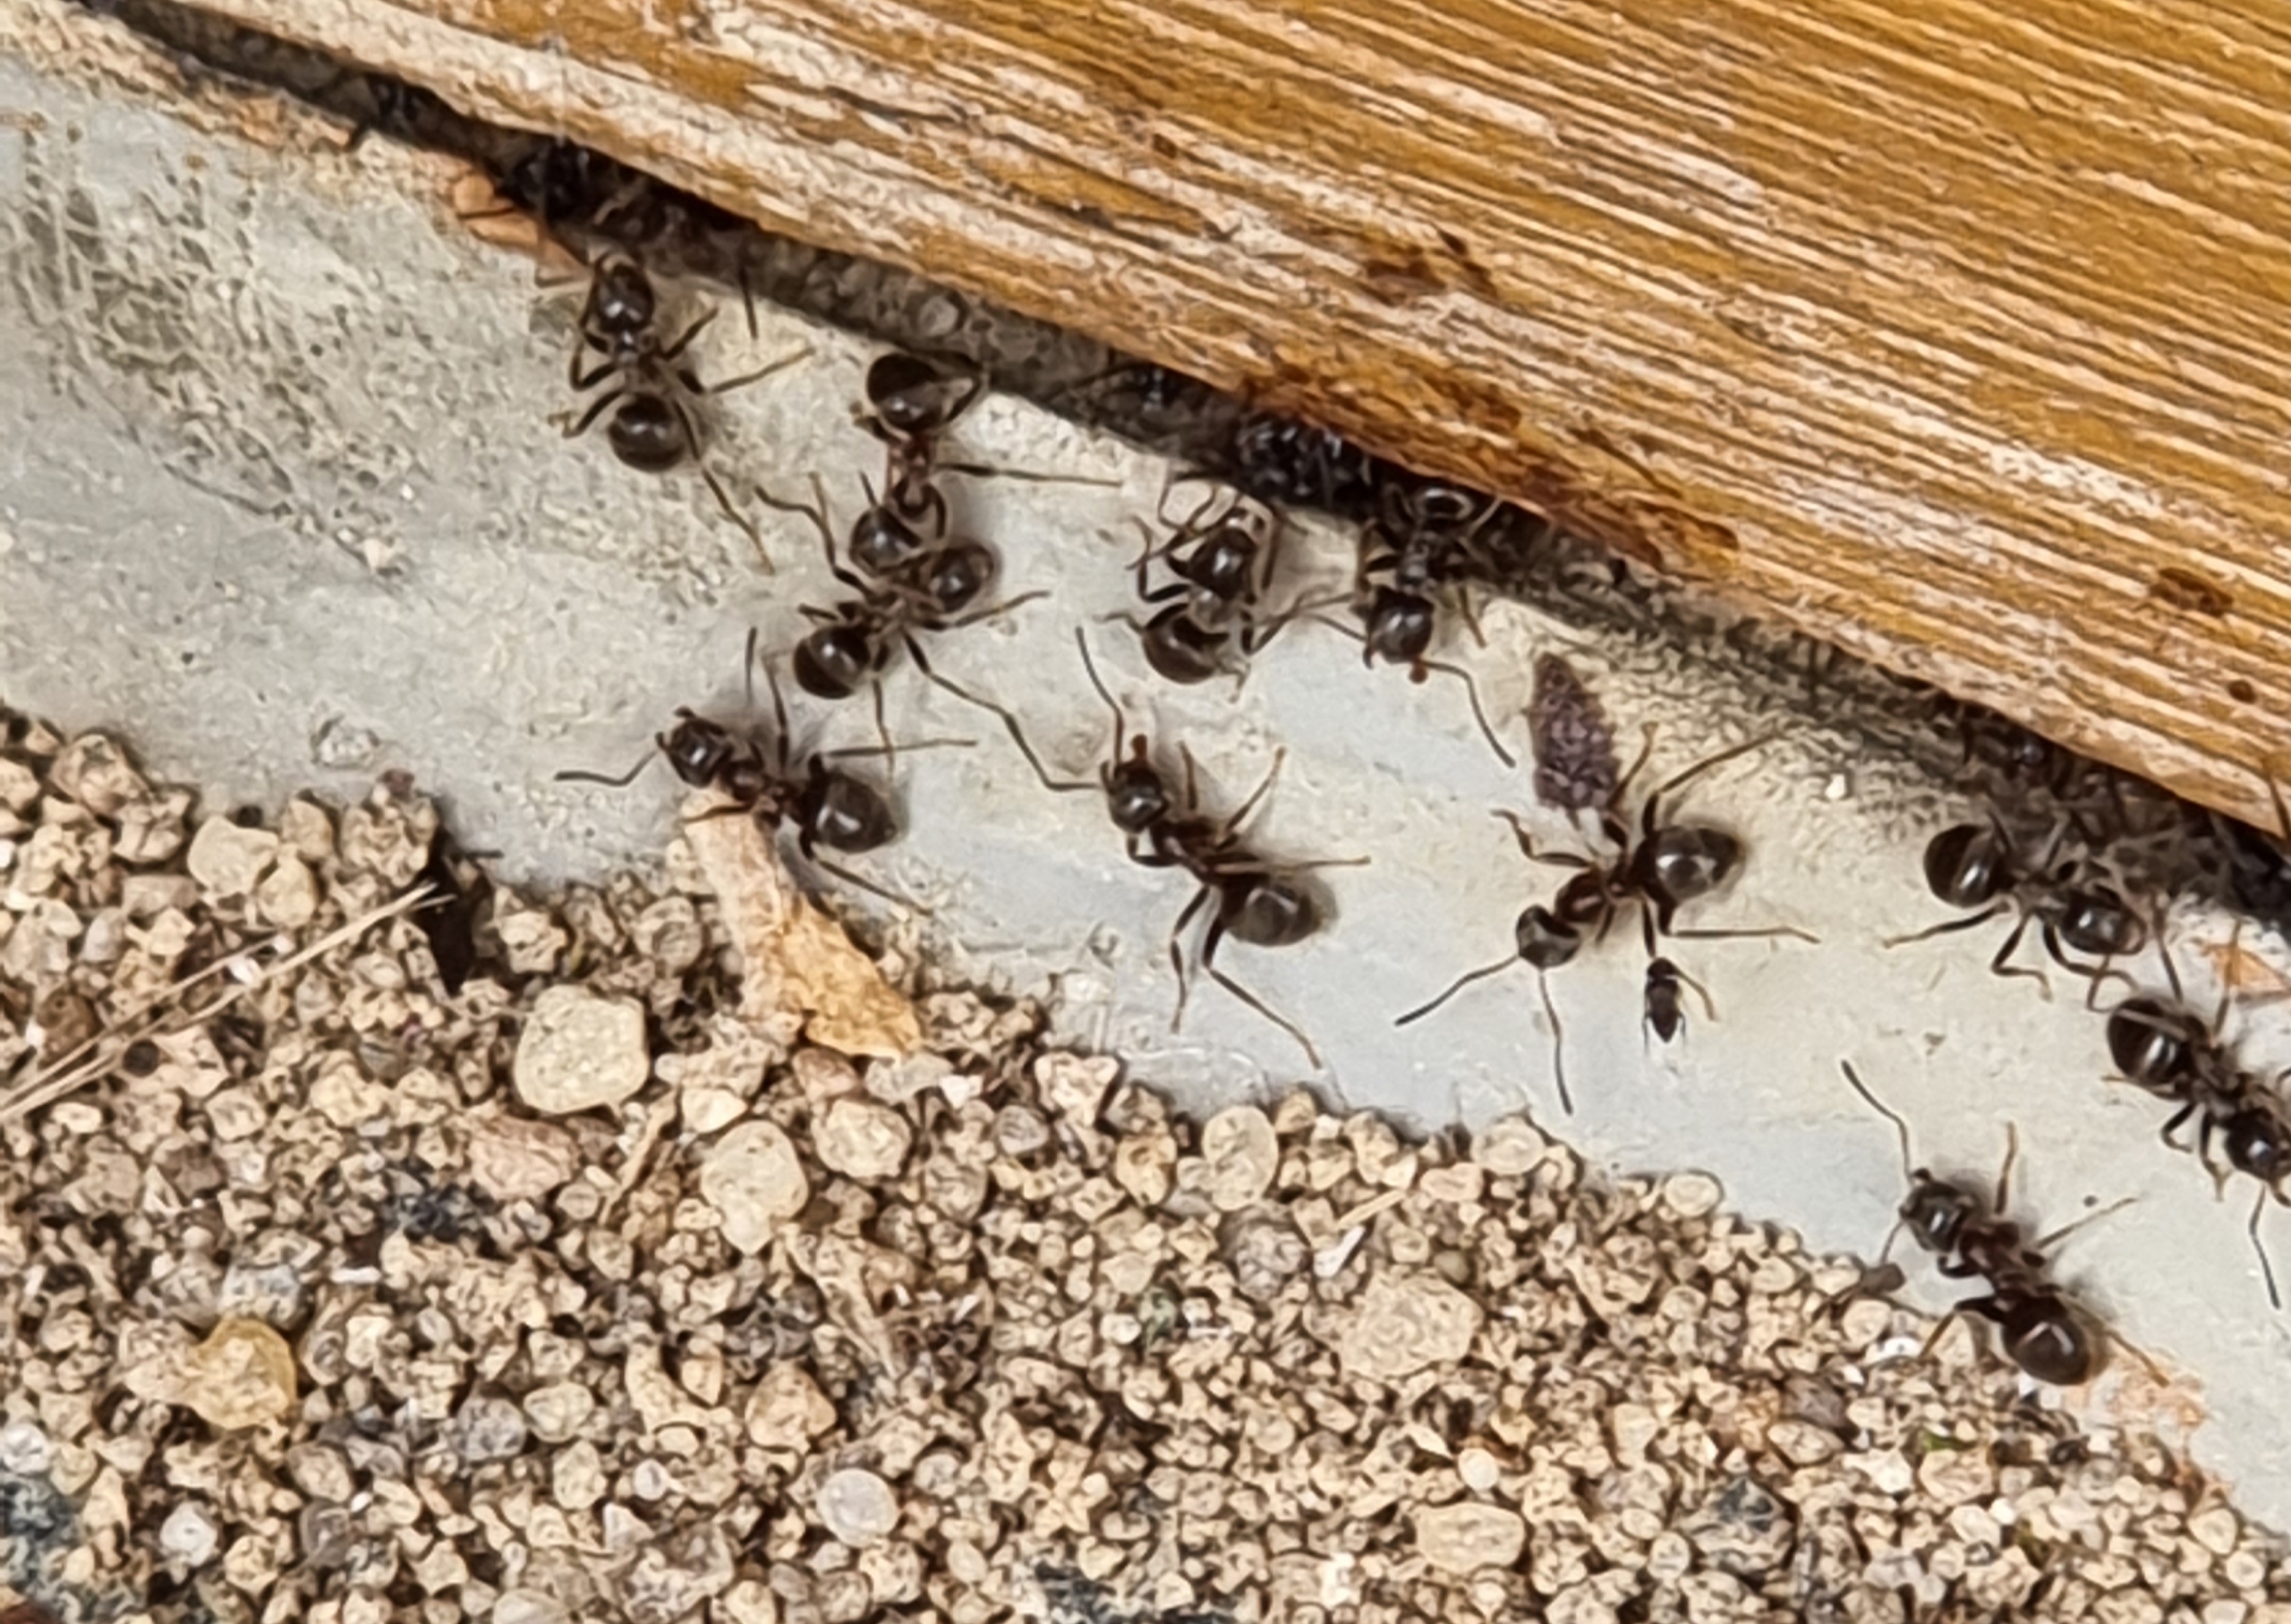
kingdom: Animalia
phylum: Arthropoda
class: Insecta
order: Diptera
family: Phoridae
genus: Pseudacteon
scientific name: Pseudacteon formicarum
